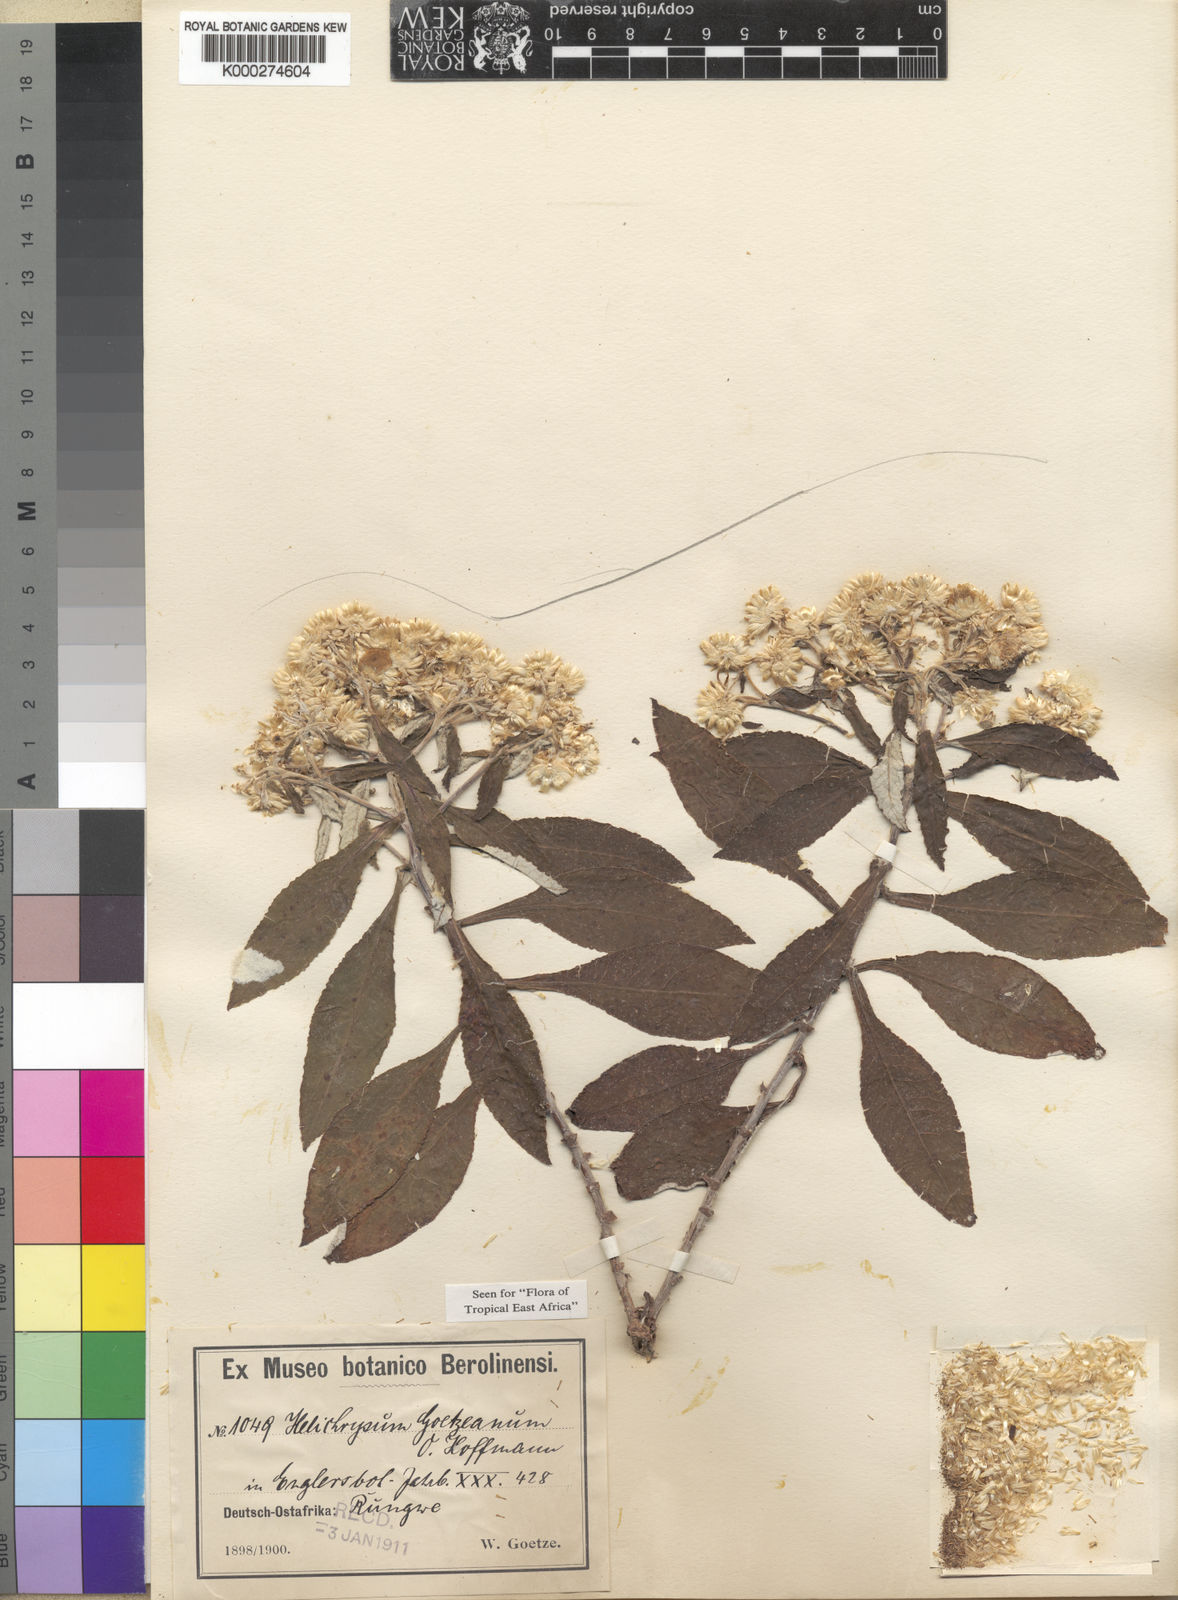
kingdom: Plantae
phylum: Tracheophyta
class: Magnoliopsida
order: Asterales
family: Asteraceae
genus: Helichrysum
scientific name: Helichrysum goetzeanum
